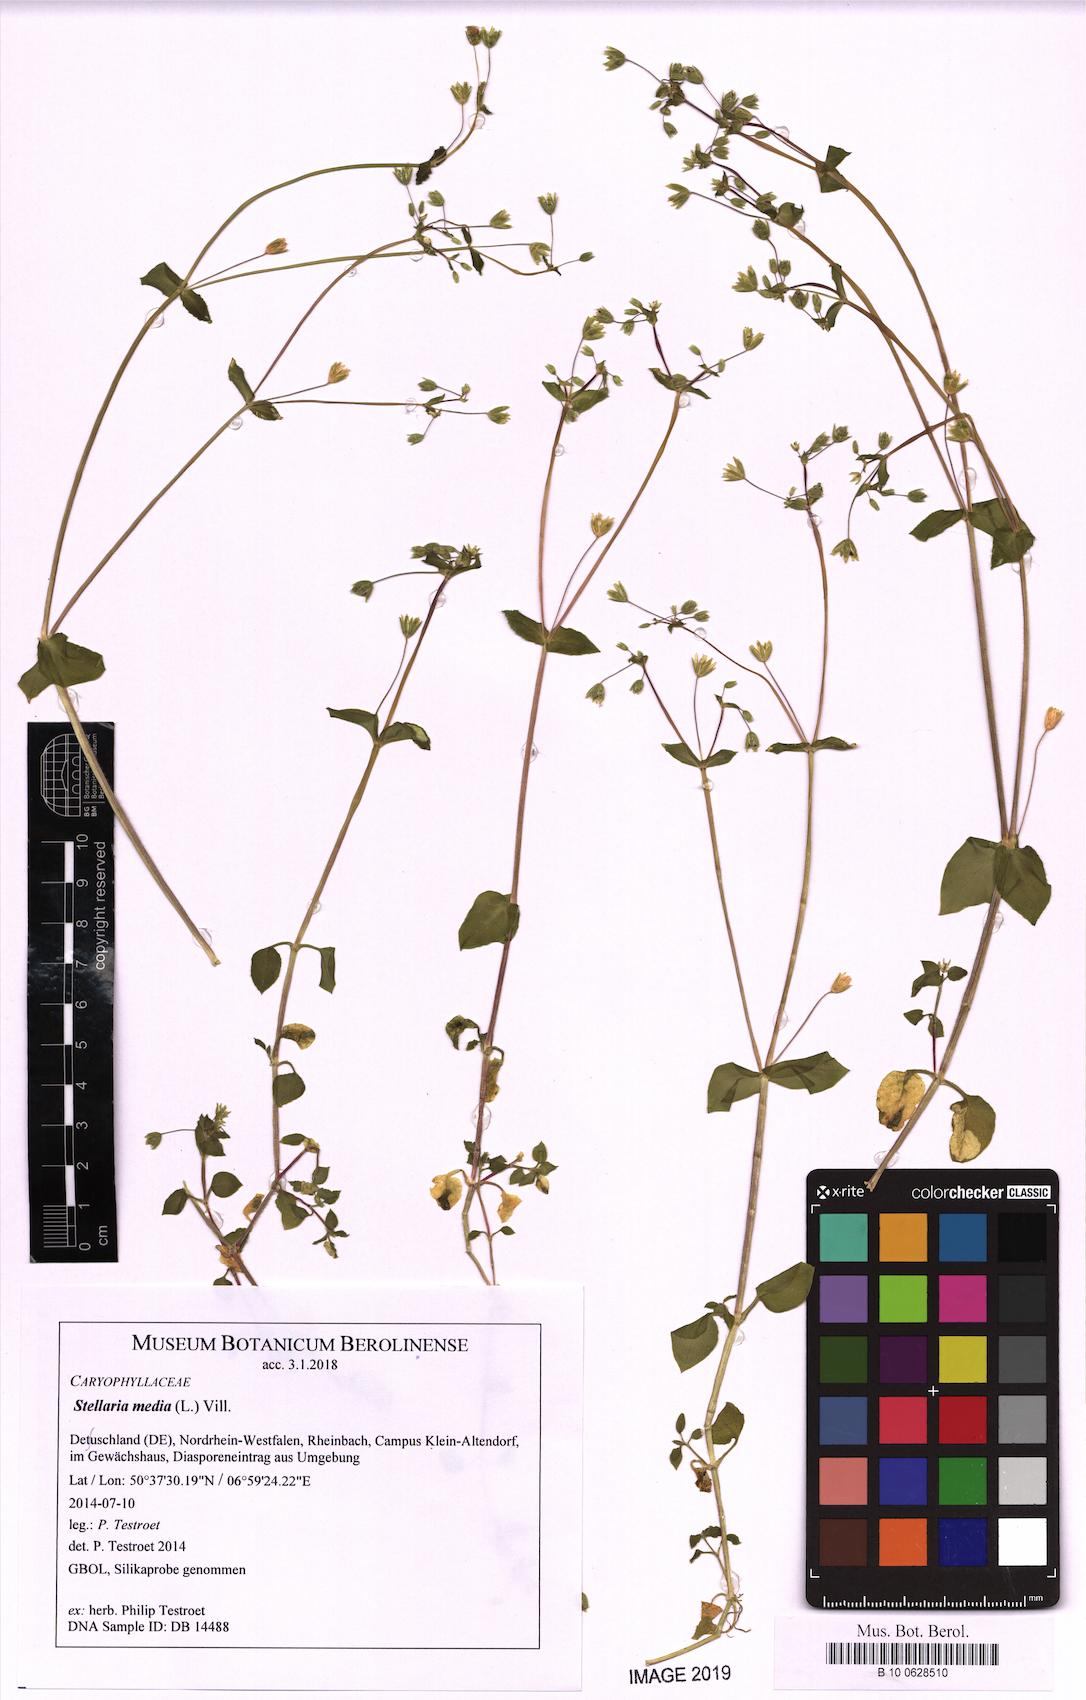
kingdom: Plantae
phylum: Tracheophyta
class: Magnoliopsida
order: Caryophyllales
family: Caryophyllaceae
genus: Stellaria
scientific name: Stellaria media
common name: Common chickweed
